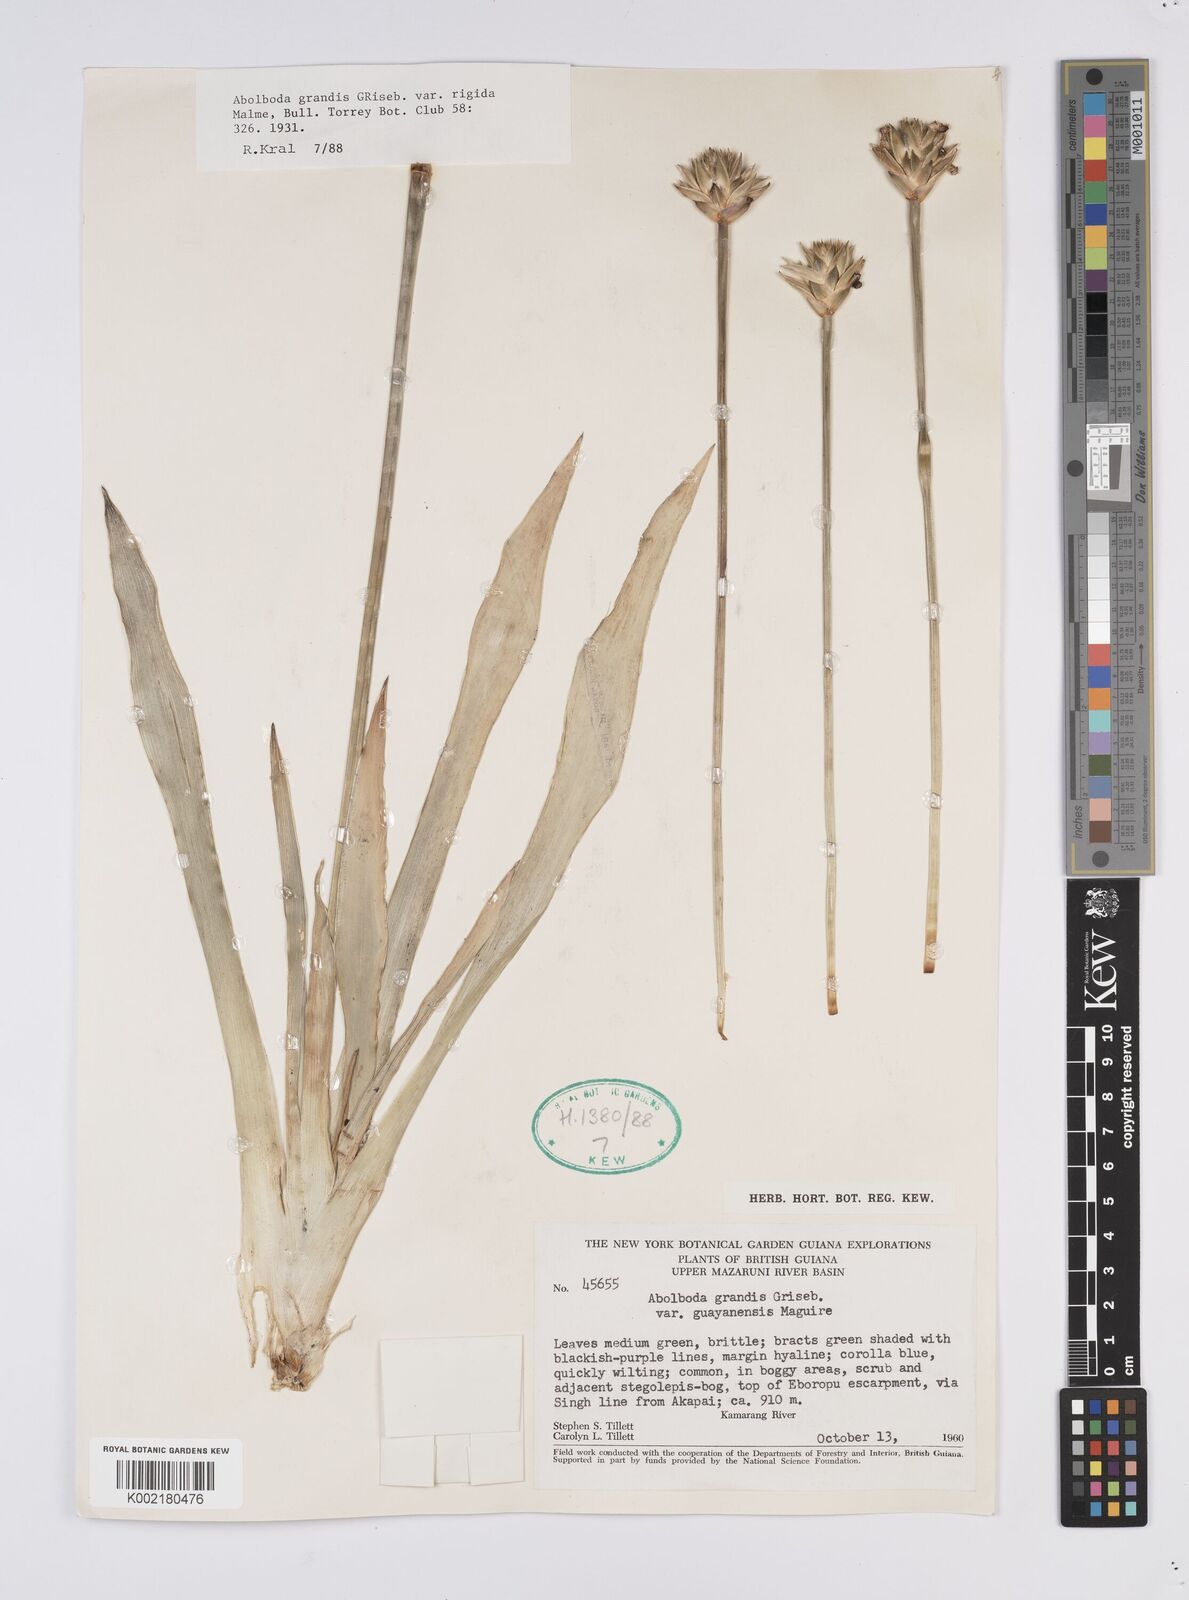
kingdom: Plantae
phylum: Tracheophyta
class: Liliopsida
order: Poales
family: Xyridaceae
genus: Abolboda
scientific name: Abolboda grandis
